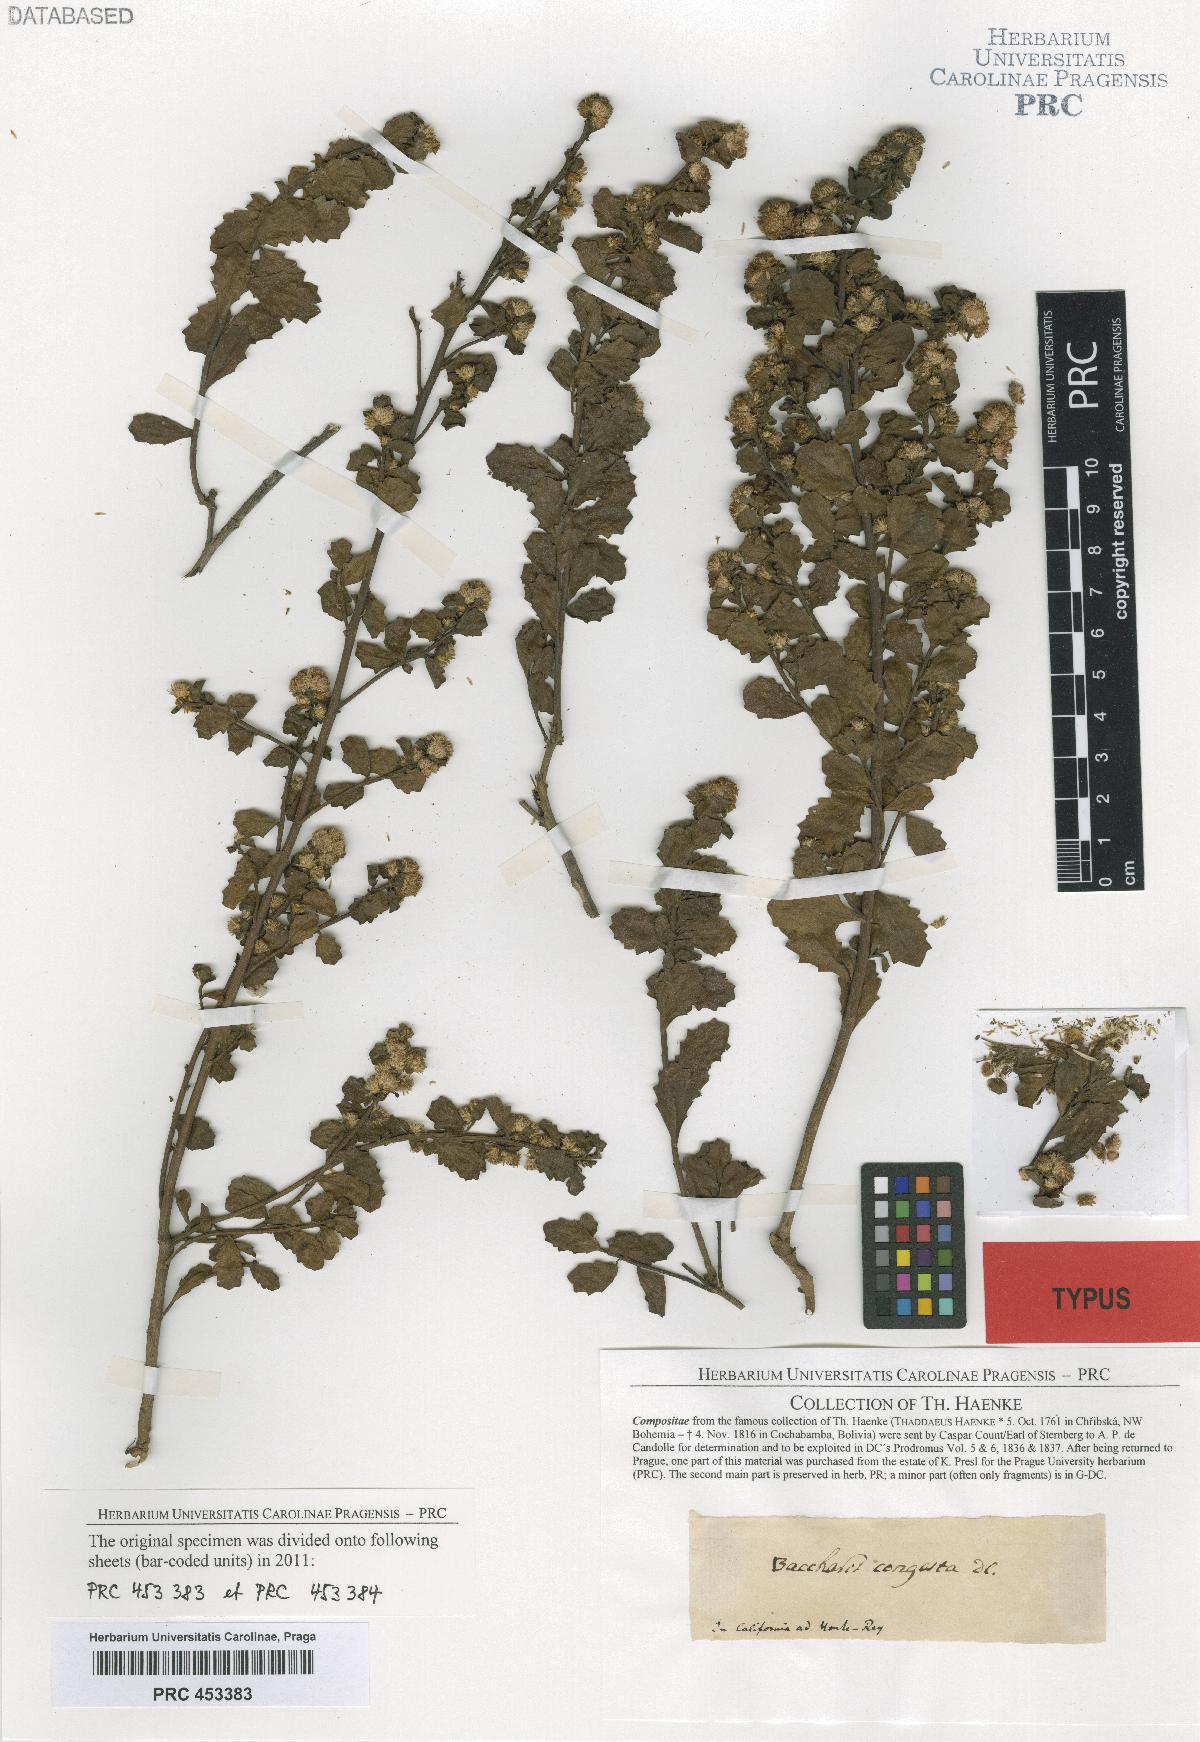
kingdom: Plantae
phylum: Tracheophyta
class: Magnoliopsida
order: Asterales
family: Asteraceae
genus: Baccharis
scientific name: Baccharis pilularis
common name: Coyotebrush
